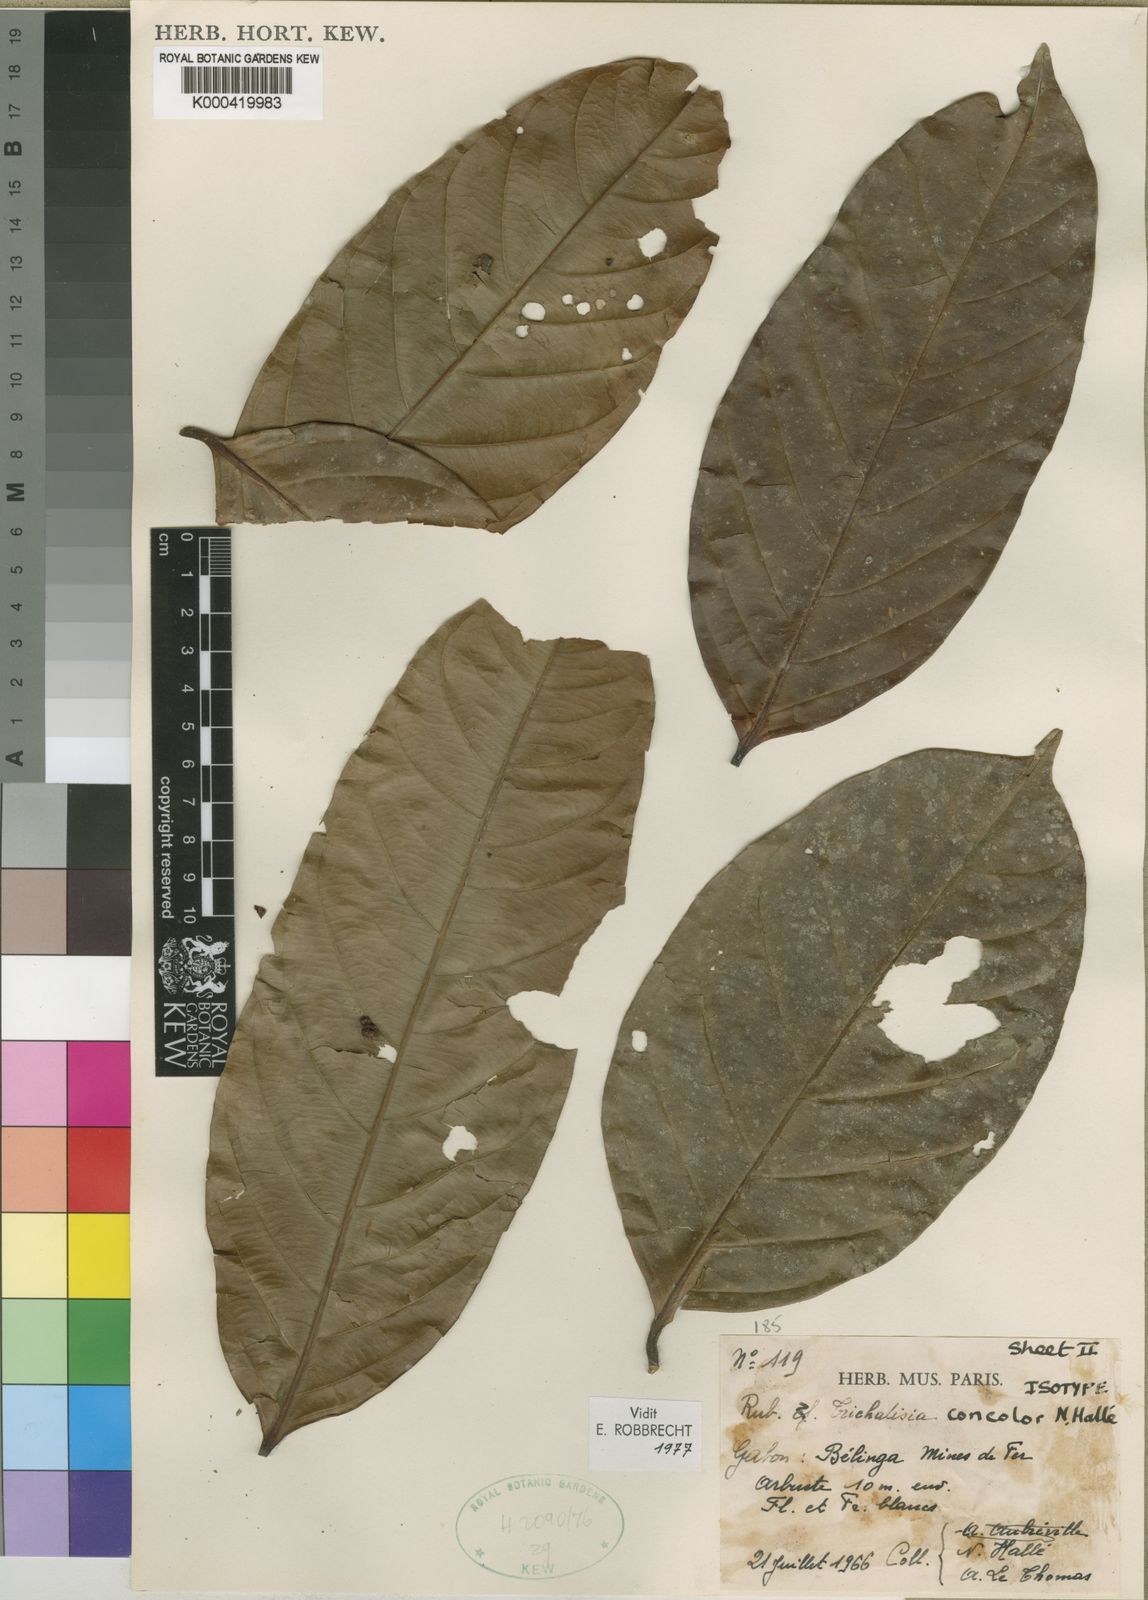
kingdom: Plantae
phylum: Tracheophyta
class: Magnoliopsida
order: Gentianales
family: Rubiaceae
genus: Empogona
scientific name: Empogona concolor
